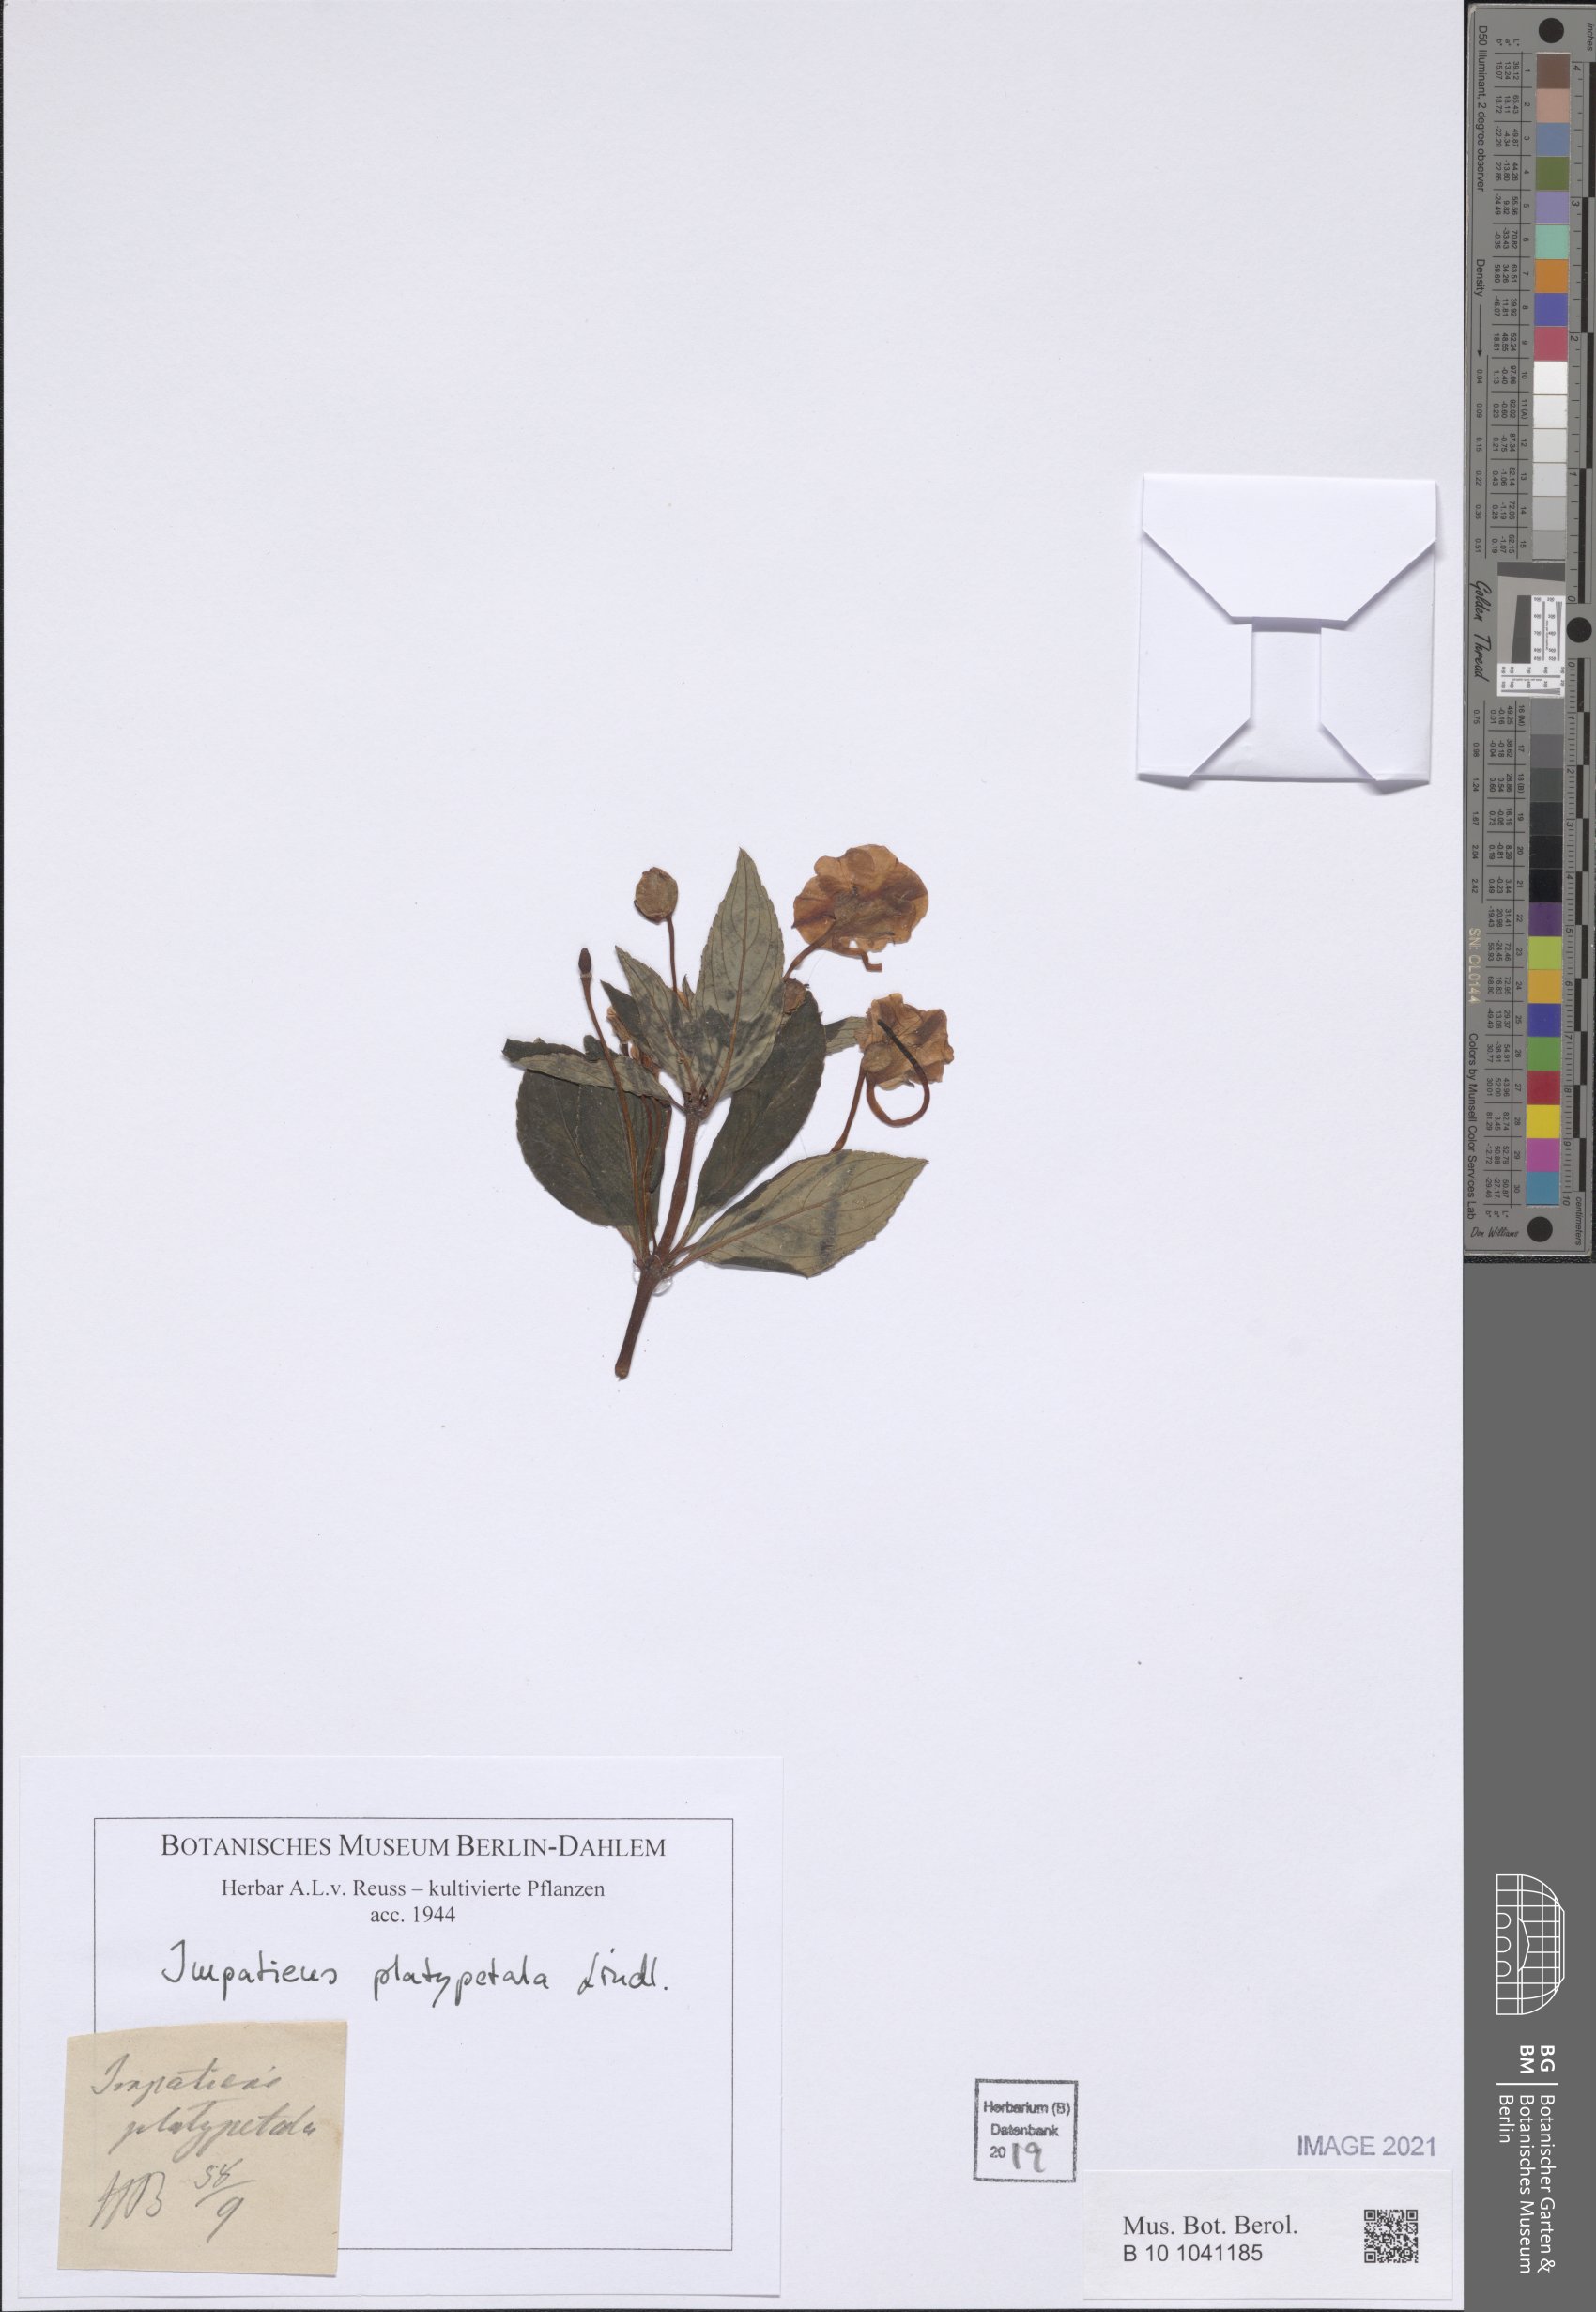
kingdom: Plantae
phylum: Tracheophyta
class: Magnoliopsida
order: Ericales
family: Balsaminaceae
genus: Impatiens
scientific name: Impatiens platypetala
